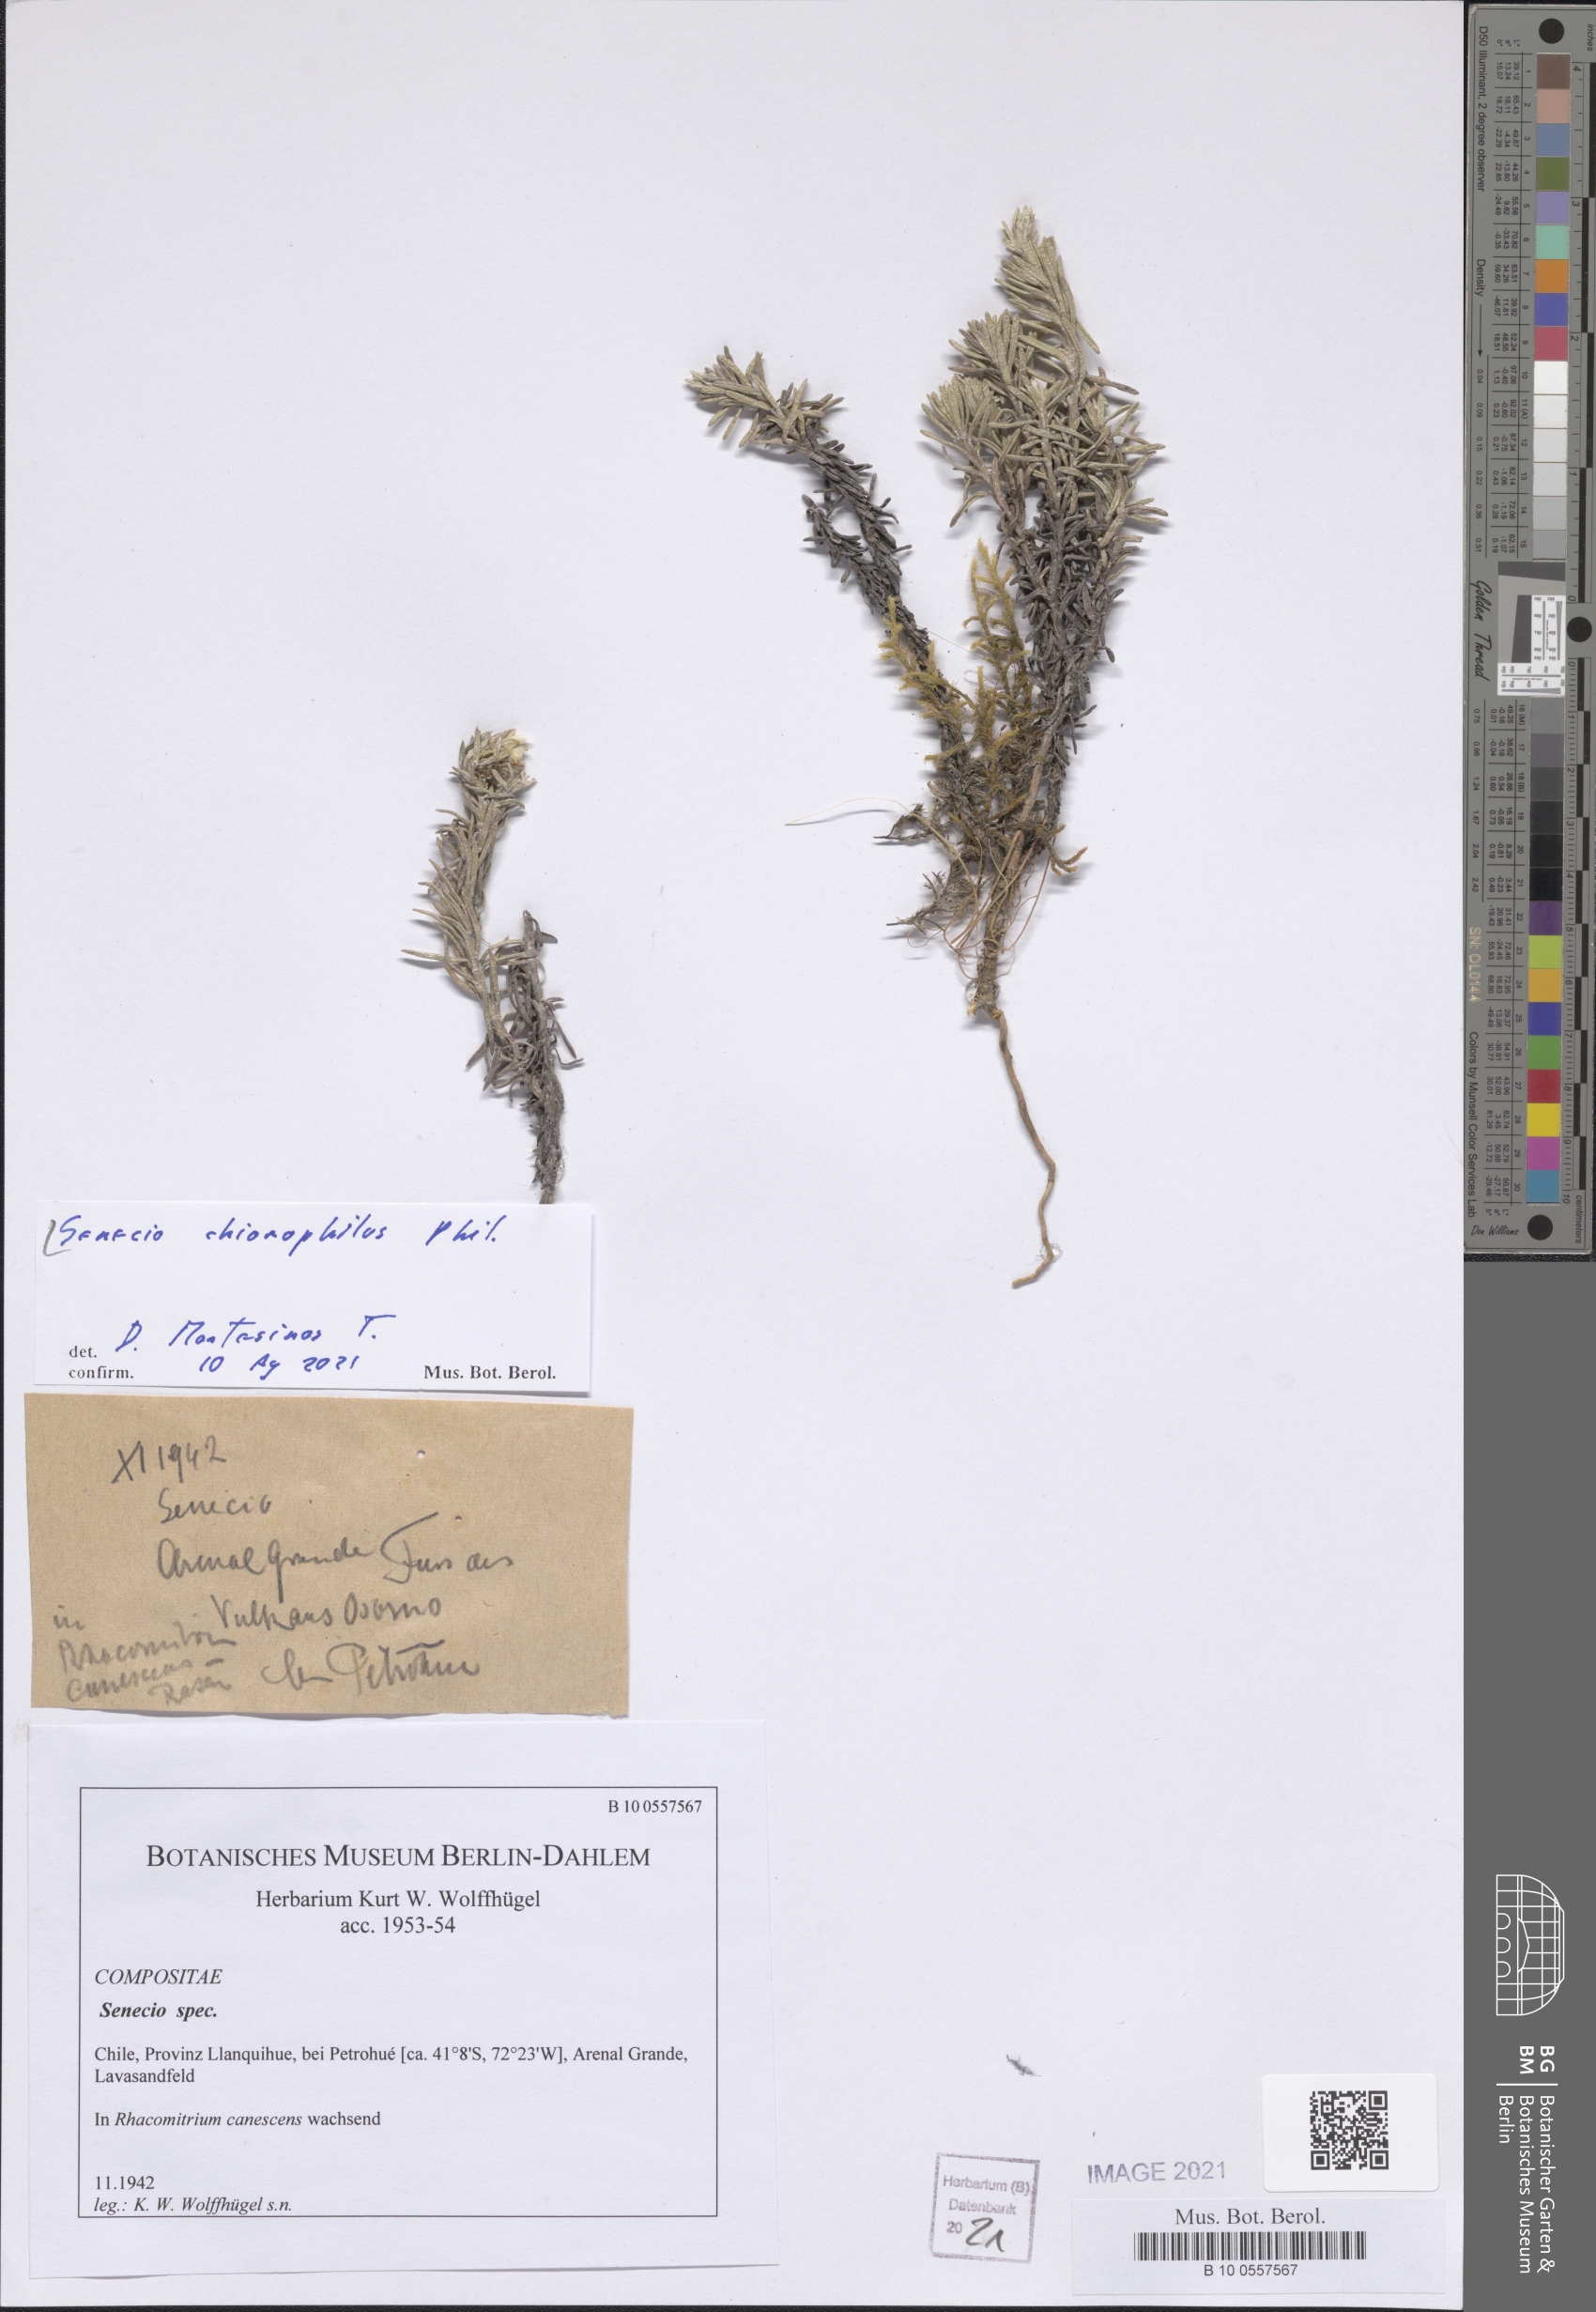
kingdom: Plantae
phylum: Tracheophyta
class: Magnoliopsida
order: Asterales
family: Asteraceae
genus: Senecio
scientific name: Senecio chionophilus
